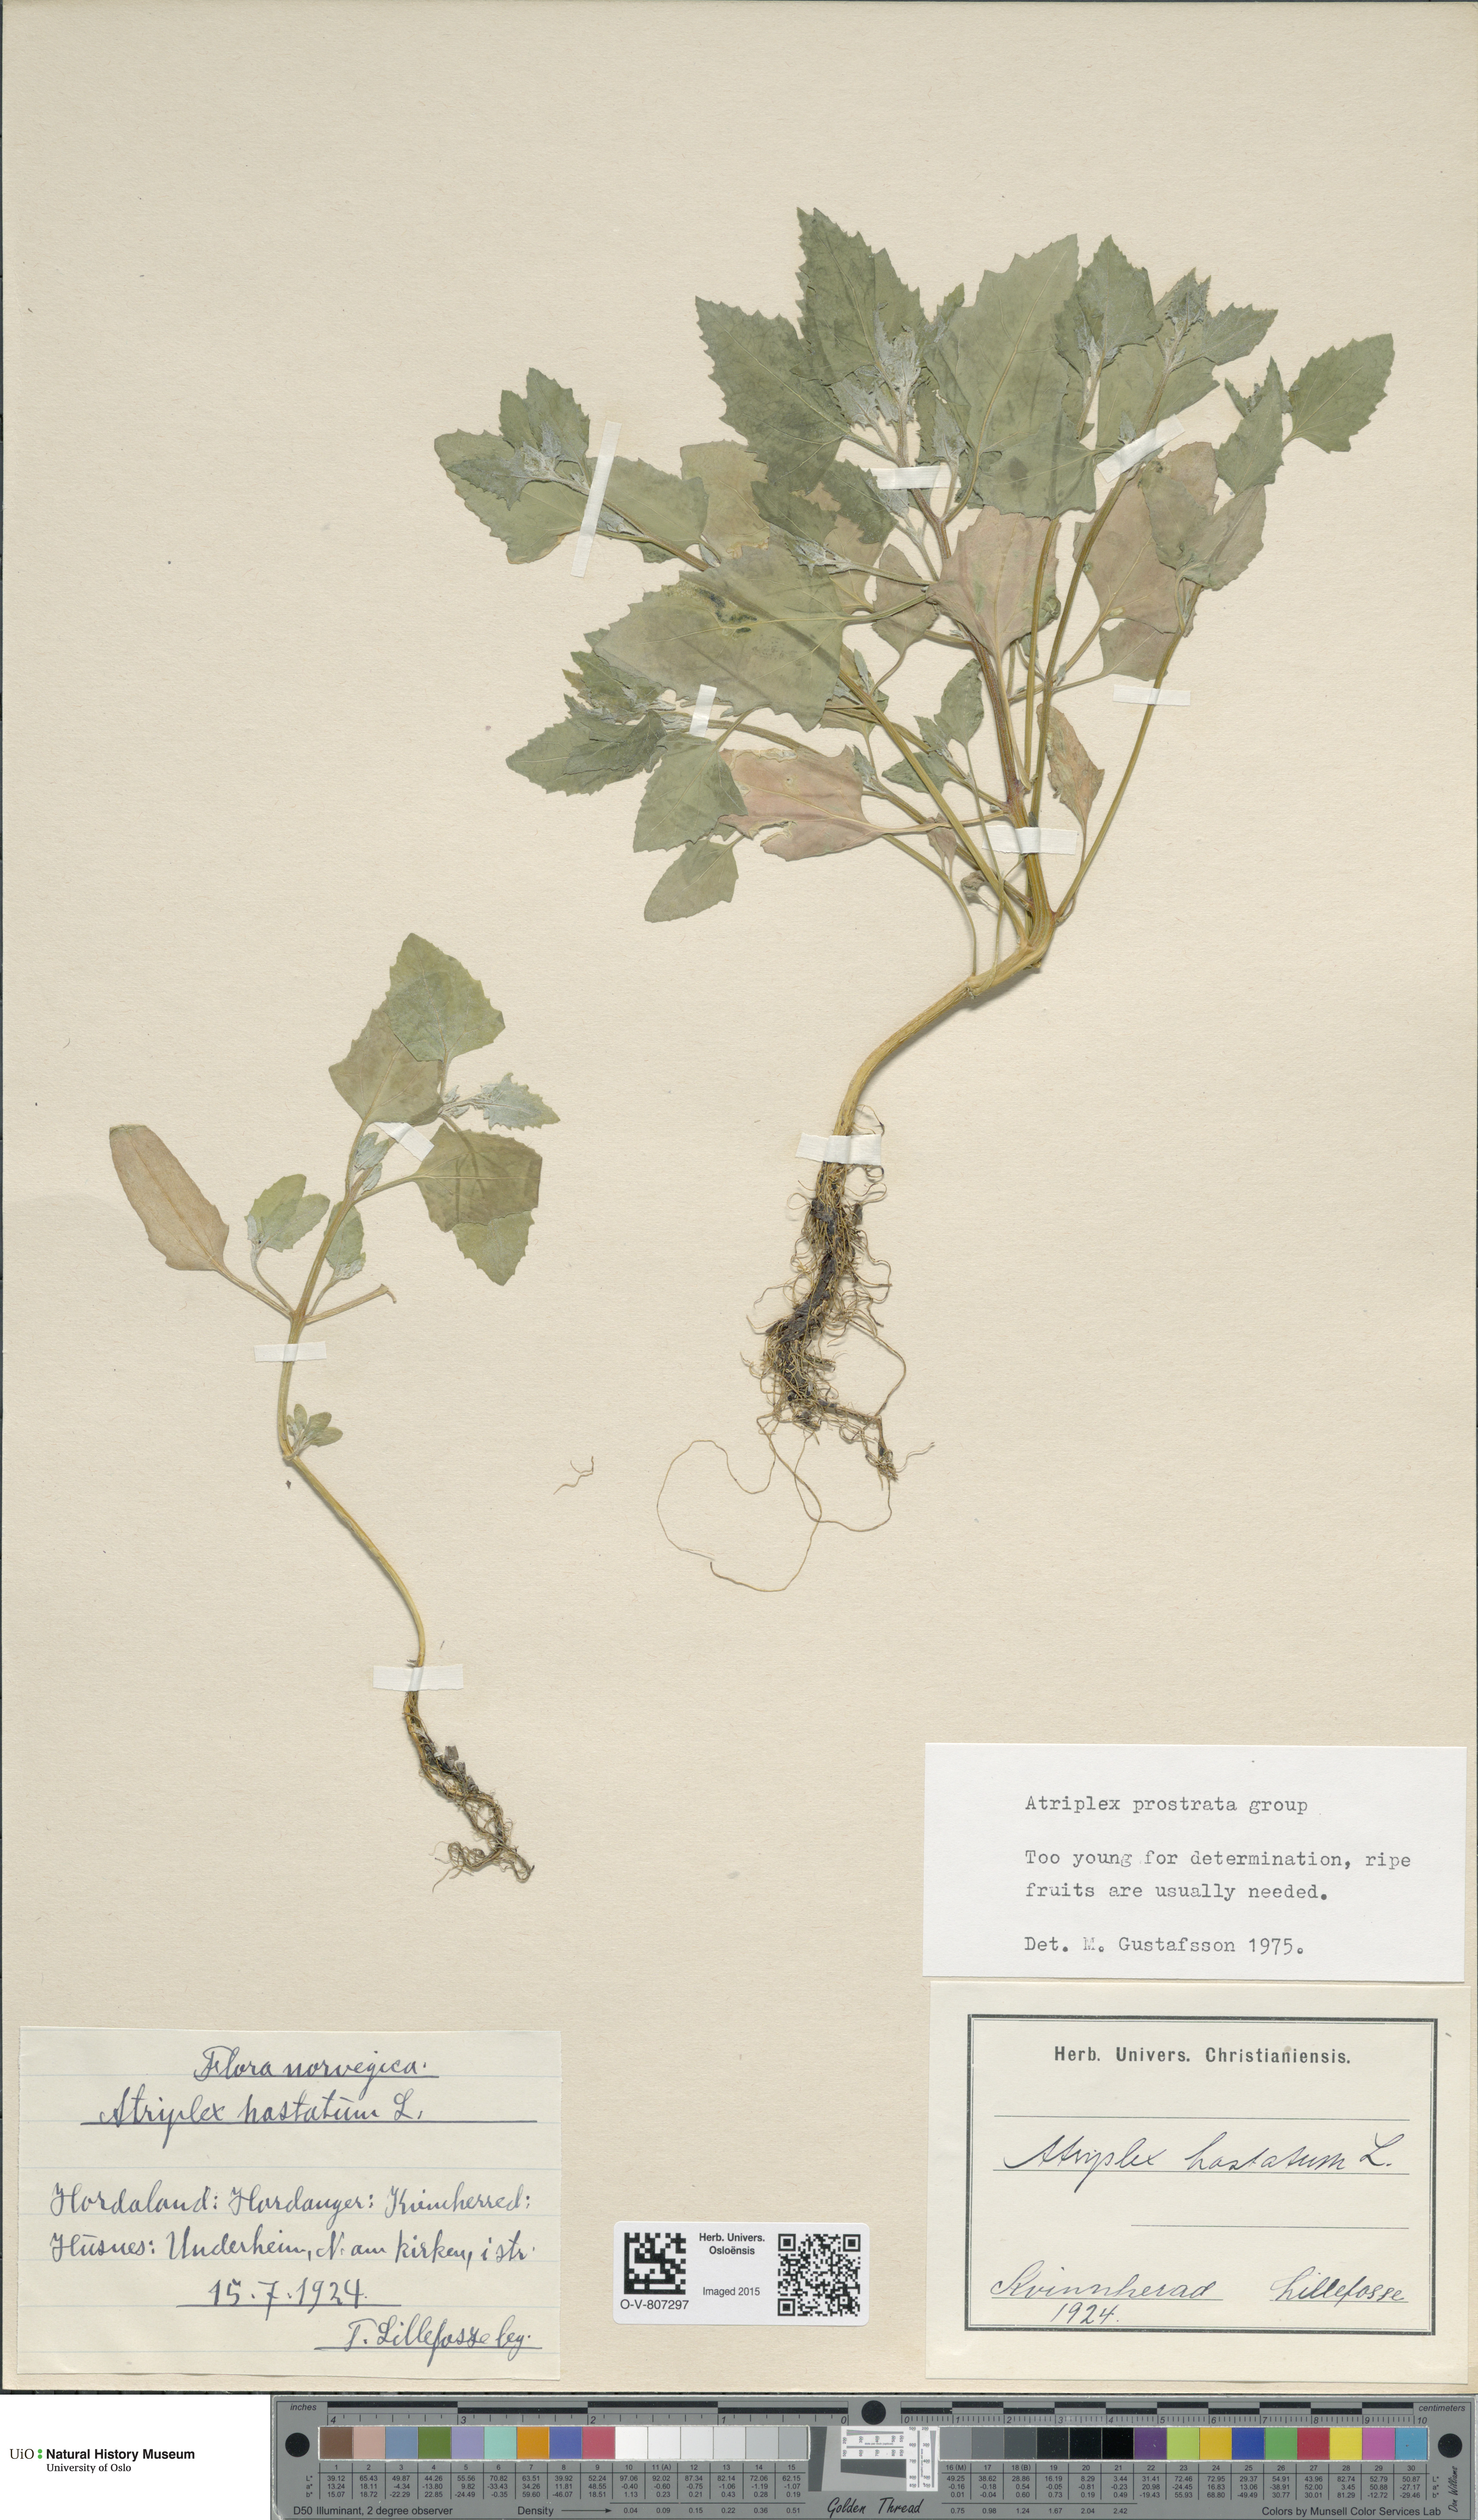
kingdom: Plantae
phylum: Tracheophyta
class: Magnoliopsida
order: Caryophyllales
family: Amaranthaceae
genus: Atriplex
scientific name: Atriplex prostrata
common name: Spear-leaved orache
